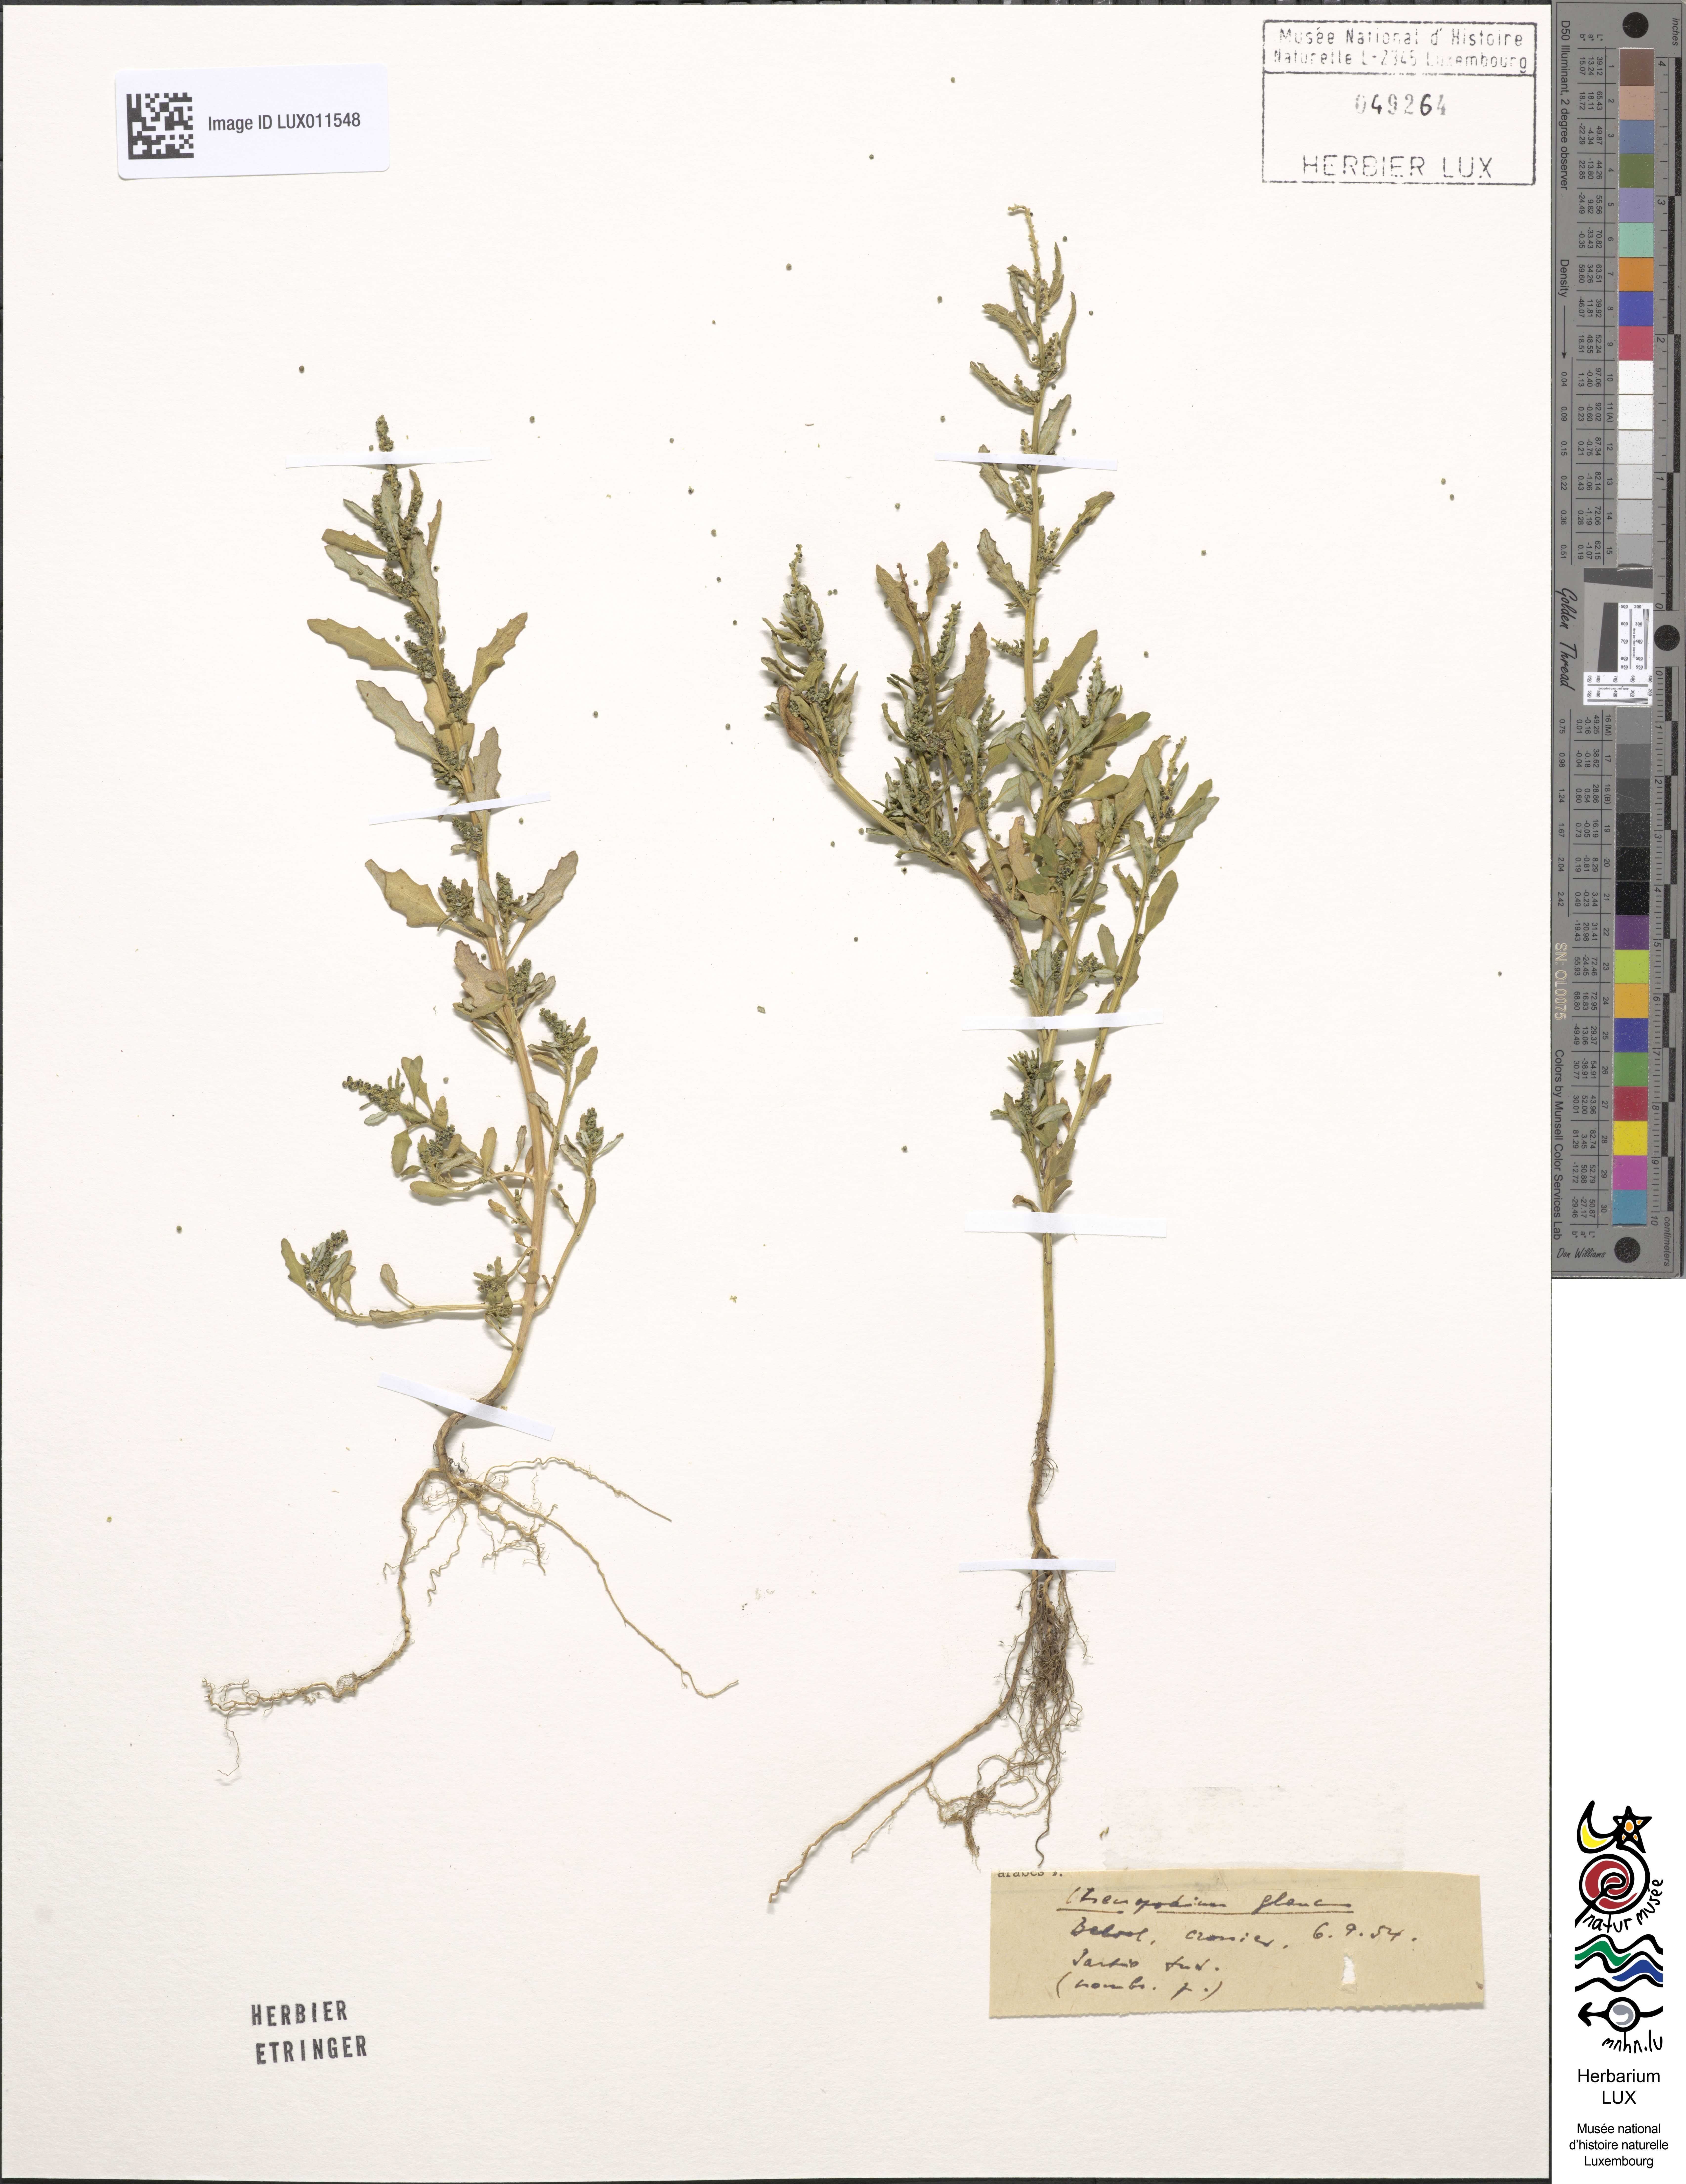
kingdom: Plantae
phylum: Tracheophyta
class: Magnoliopsida
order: Caryophyllales
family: Amaranthaceae
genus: Oxybasis
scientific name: Oxybasis glauca
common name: Glaucous goosefoot
